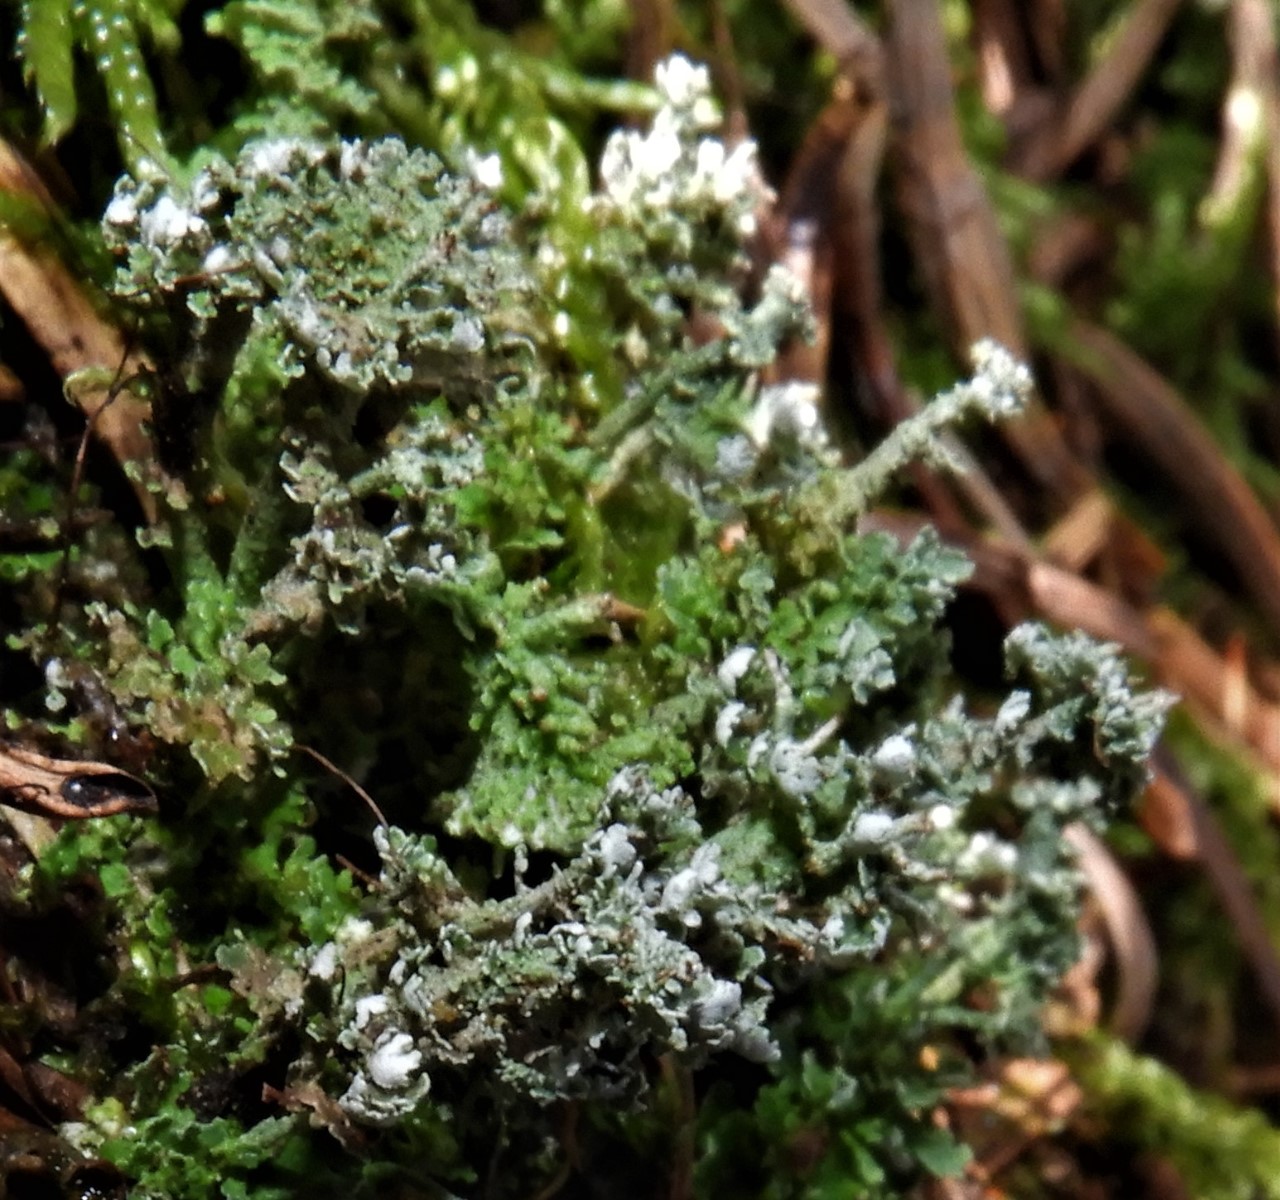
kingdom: Fungi
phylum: Ascomycota
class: Lecanoromycetes
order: Lecanorales
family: Cladoniaceae
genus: Cladonia
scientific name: Cladonia
